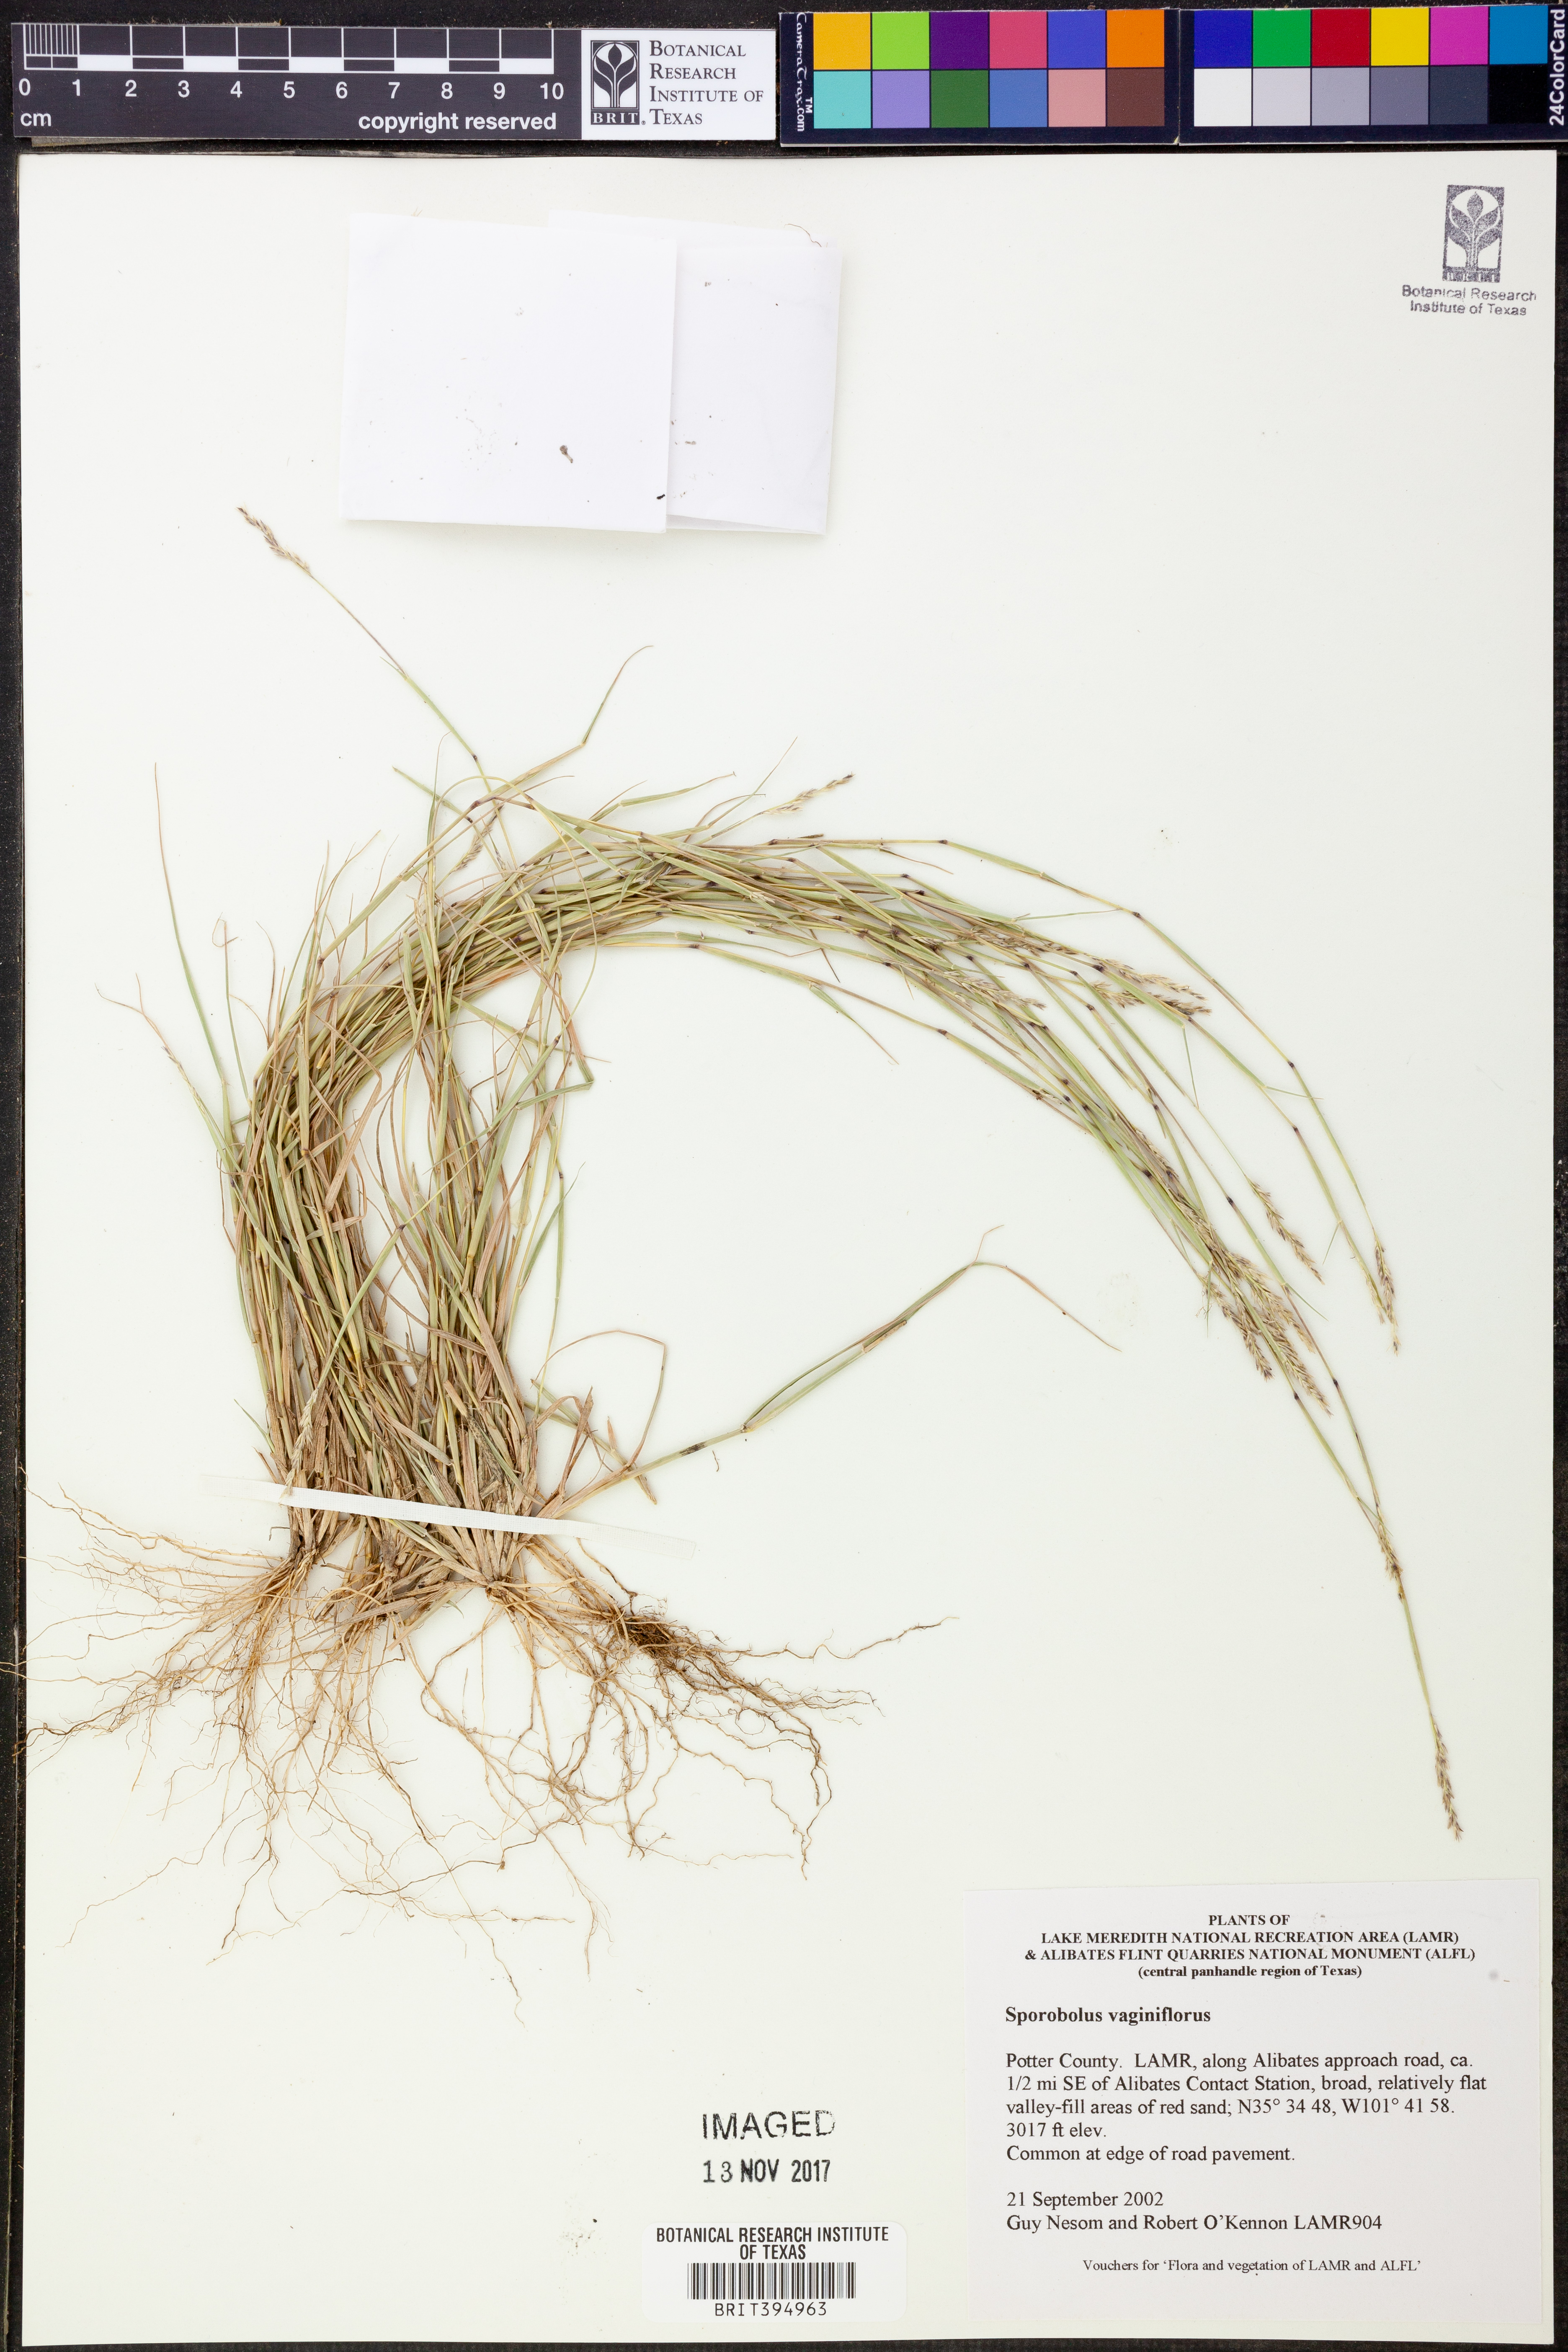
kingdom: Plantae
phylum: Tracheophyta
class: Liliopsida
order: Poales
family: Poaceae
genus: Sporobolus
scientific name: Sporobolus vaginiflorus
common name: Poverty dropseed
